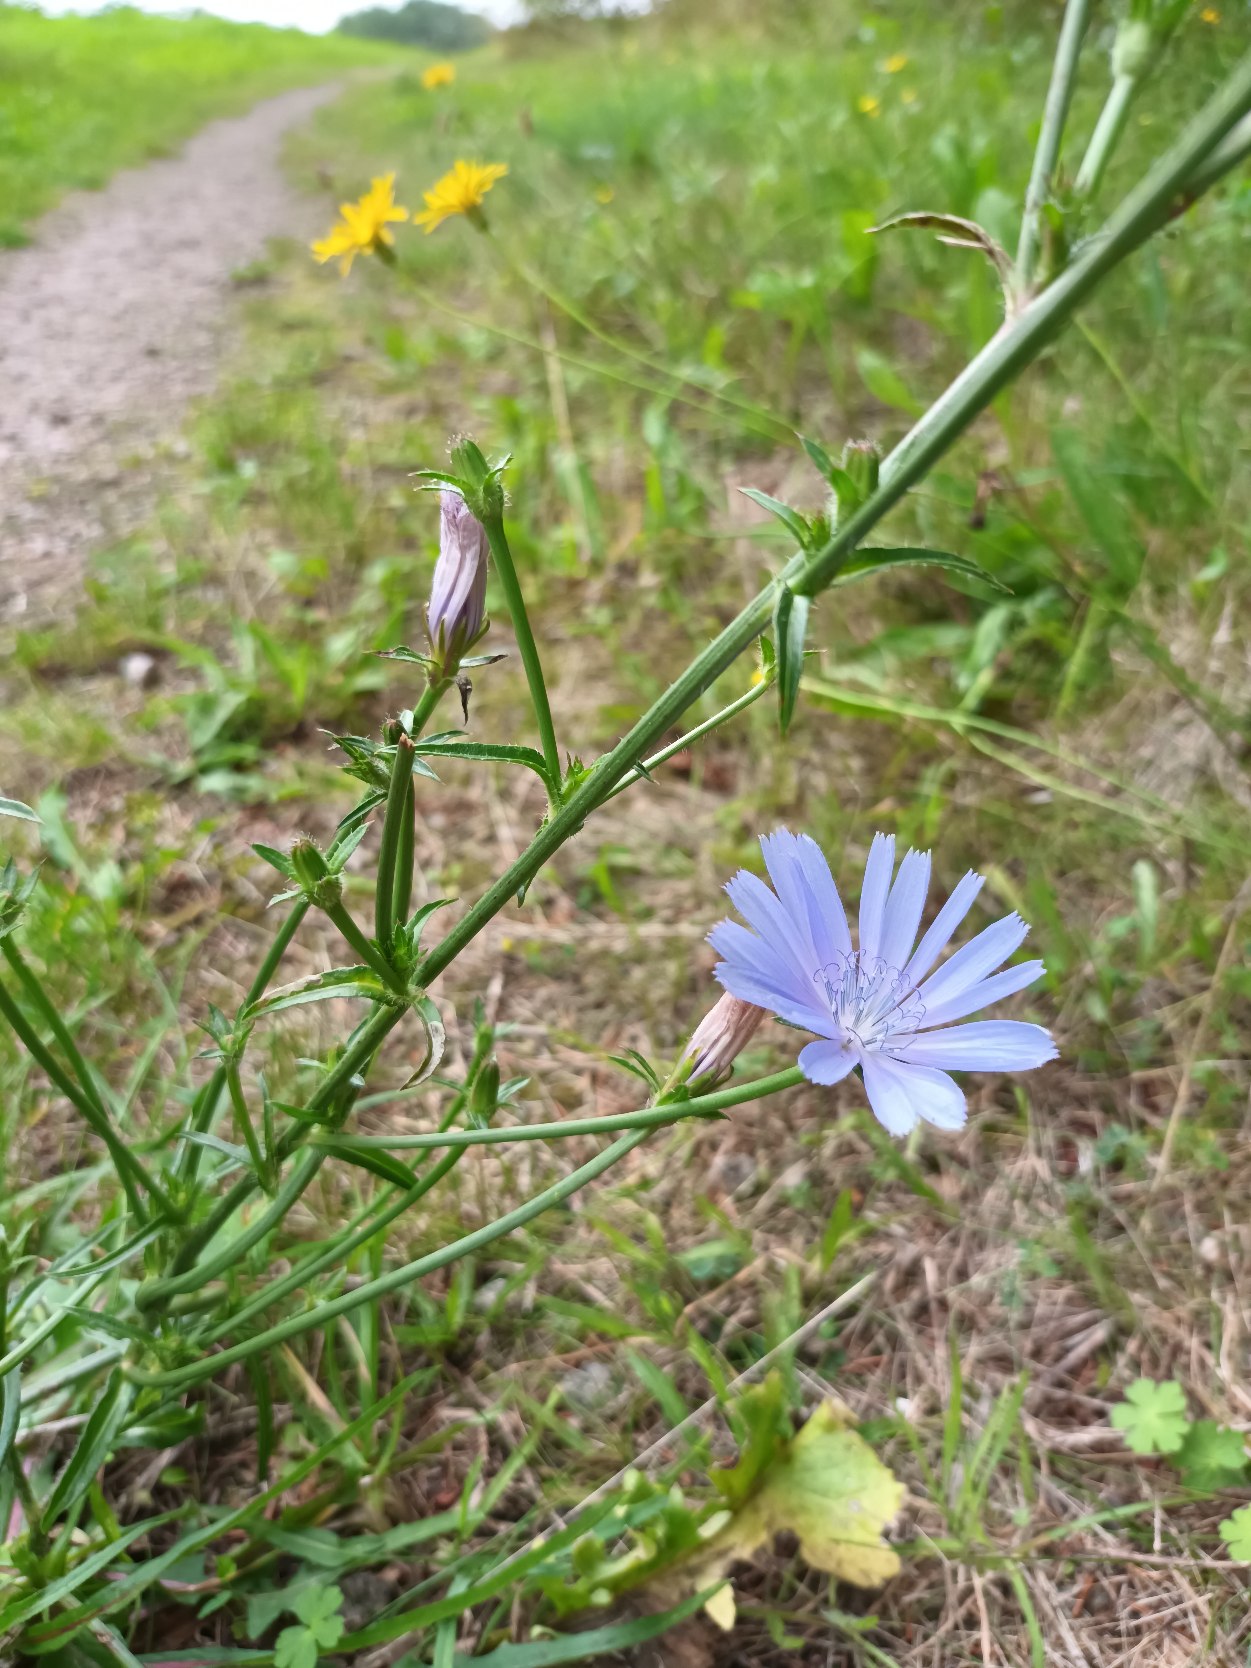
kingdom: Plantae
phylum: Tracheophyta
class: Magnoliopsida
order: Asterales
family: Asteraceae
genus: Cichorium
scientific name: Cichorium intybus
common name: Cikorie
